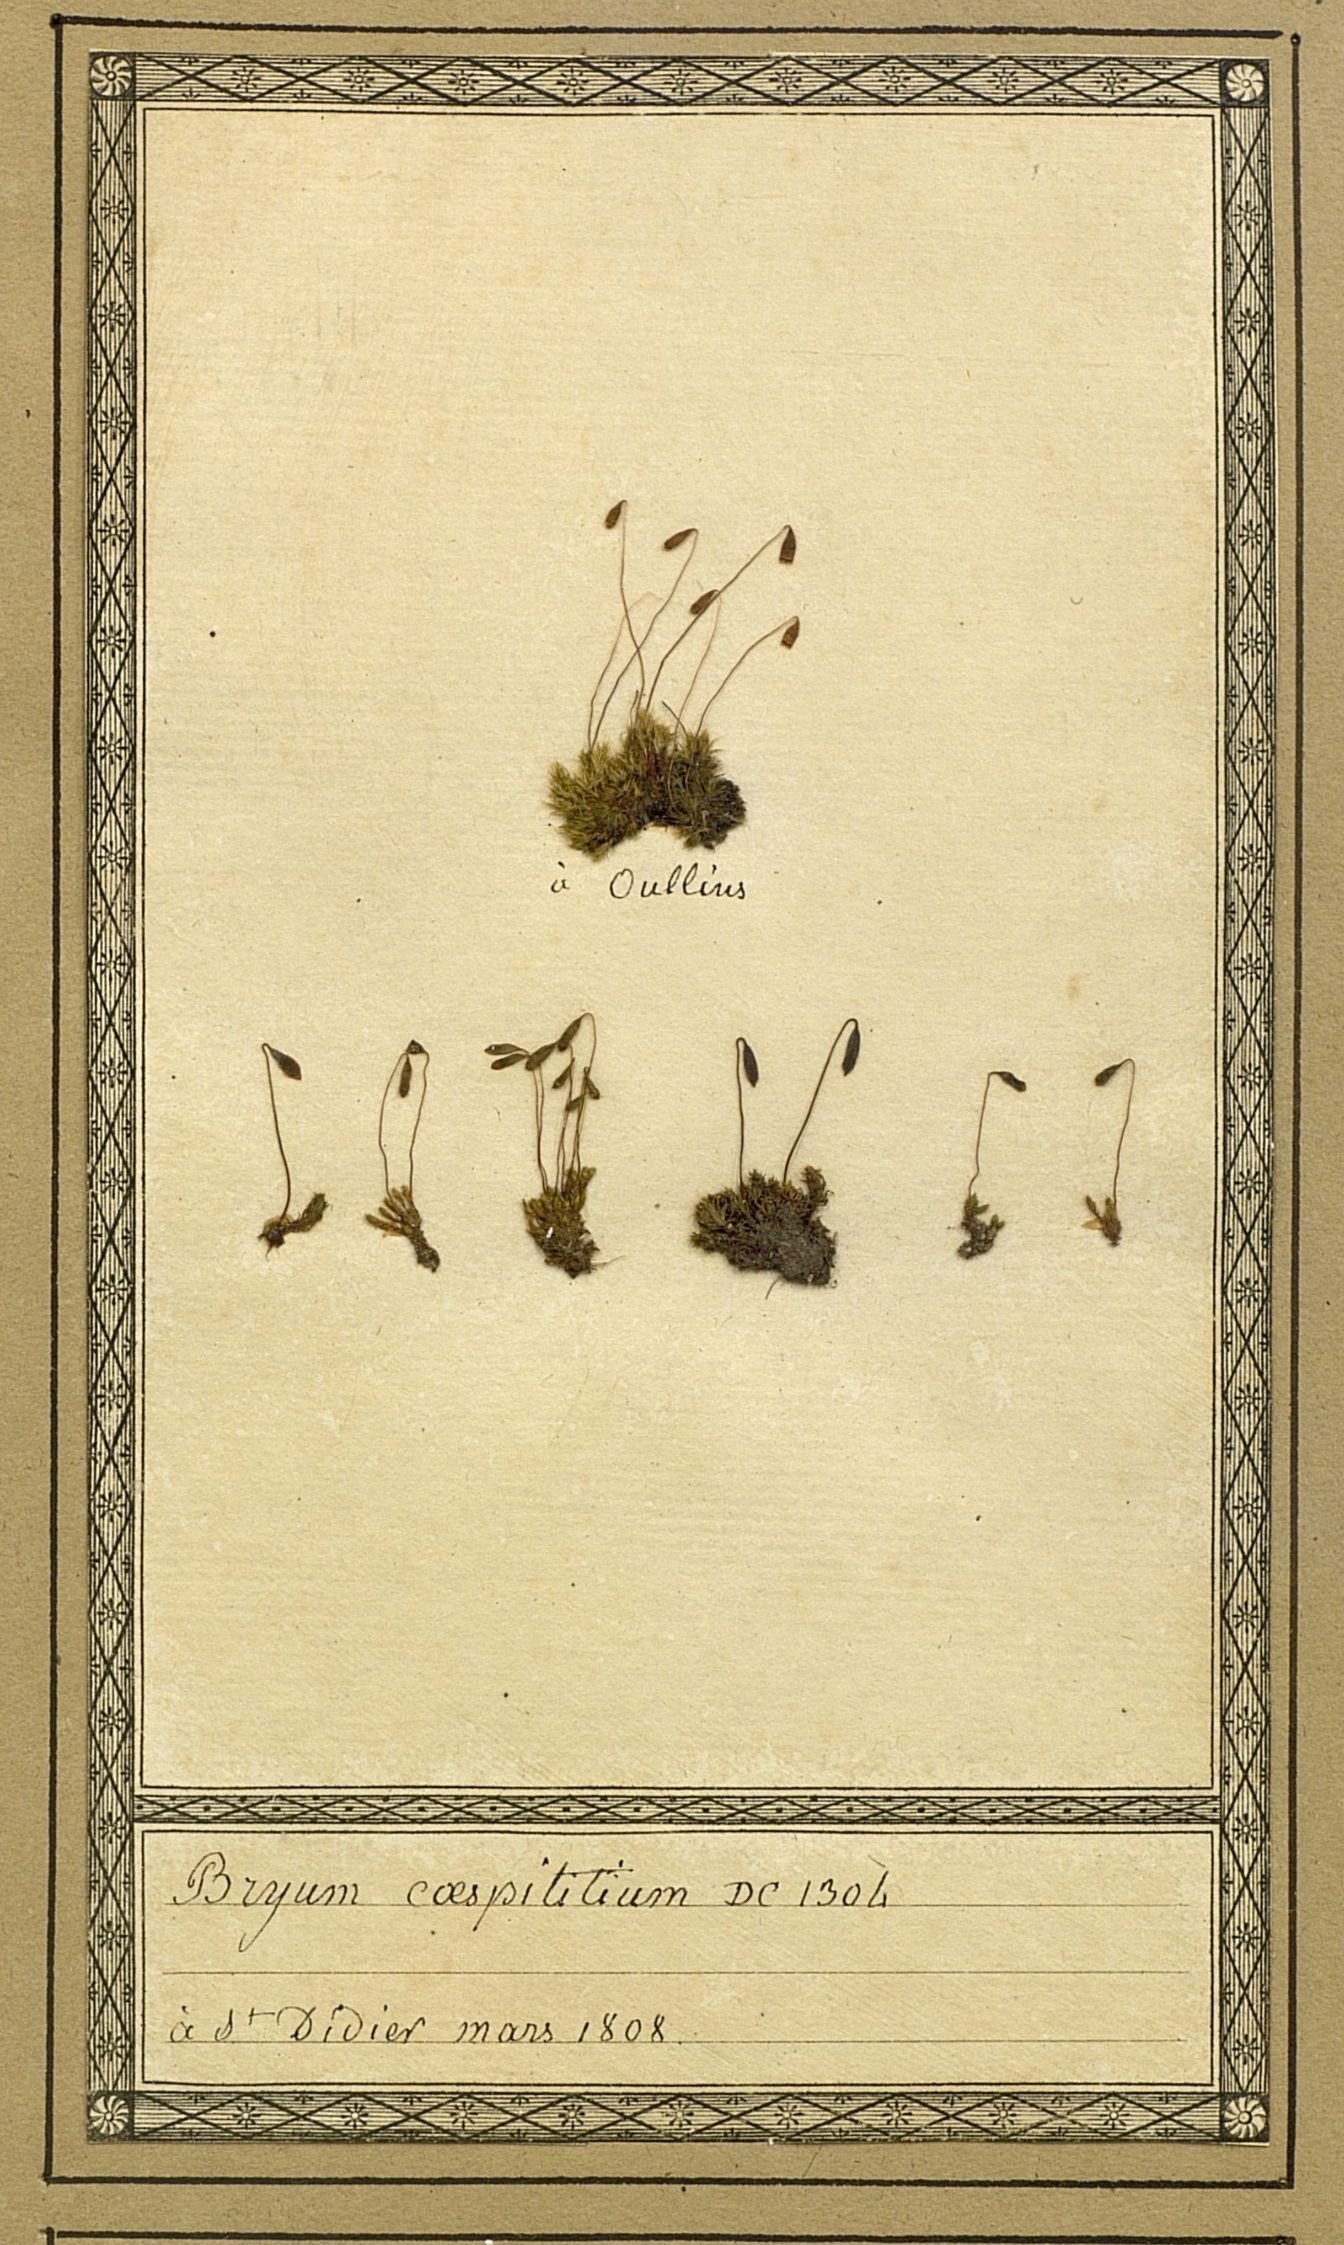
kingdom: Plantae
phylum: Bryophyta
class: Bryopsida
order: Bryales
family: Bryaceae
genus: Gemmabryum
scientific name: Gemmabryum caespiticium
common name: Handbell moss
